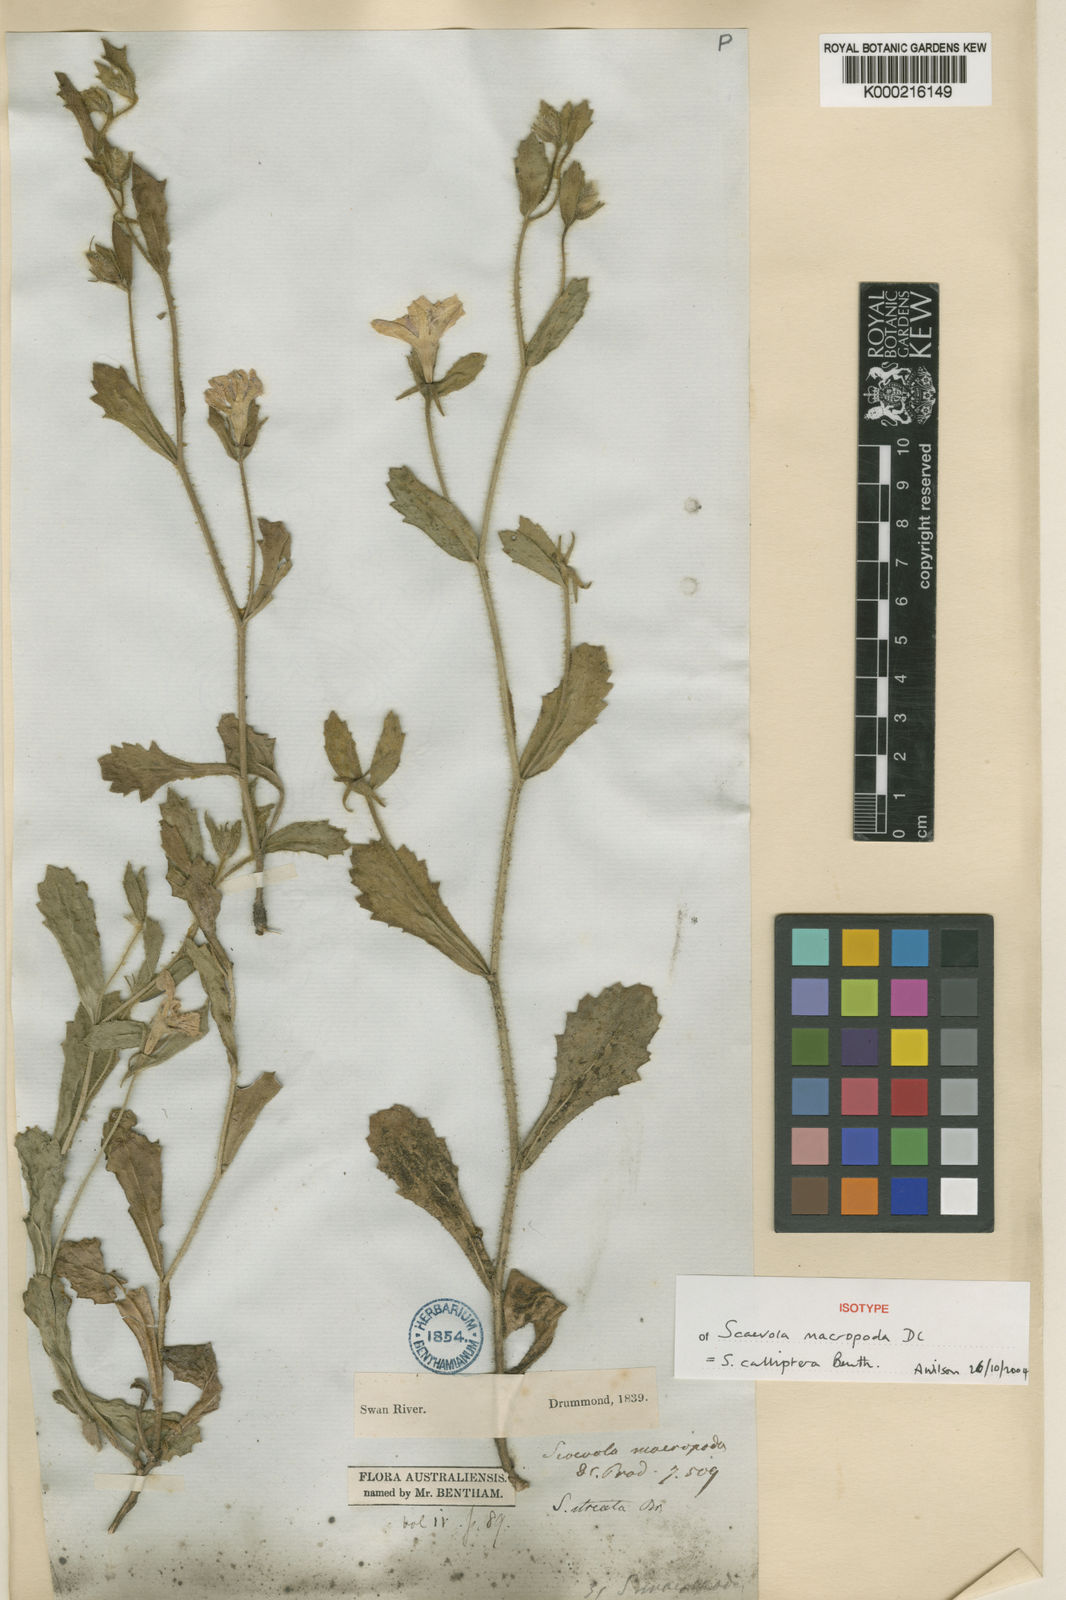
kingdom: Plantae
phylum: Tracheophyta
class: Magnoliopsida
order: Asterales
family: Goodeniaceae
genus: Scaevola
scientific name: Scaevola striata
